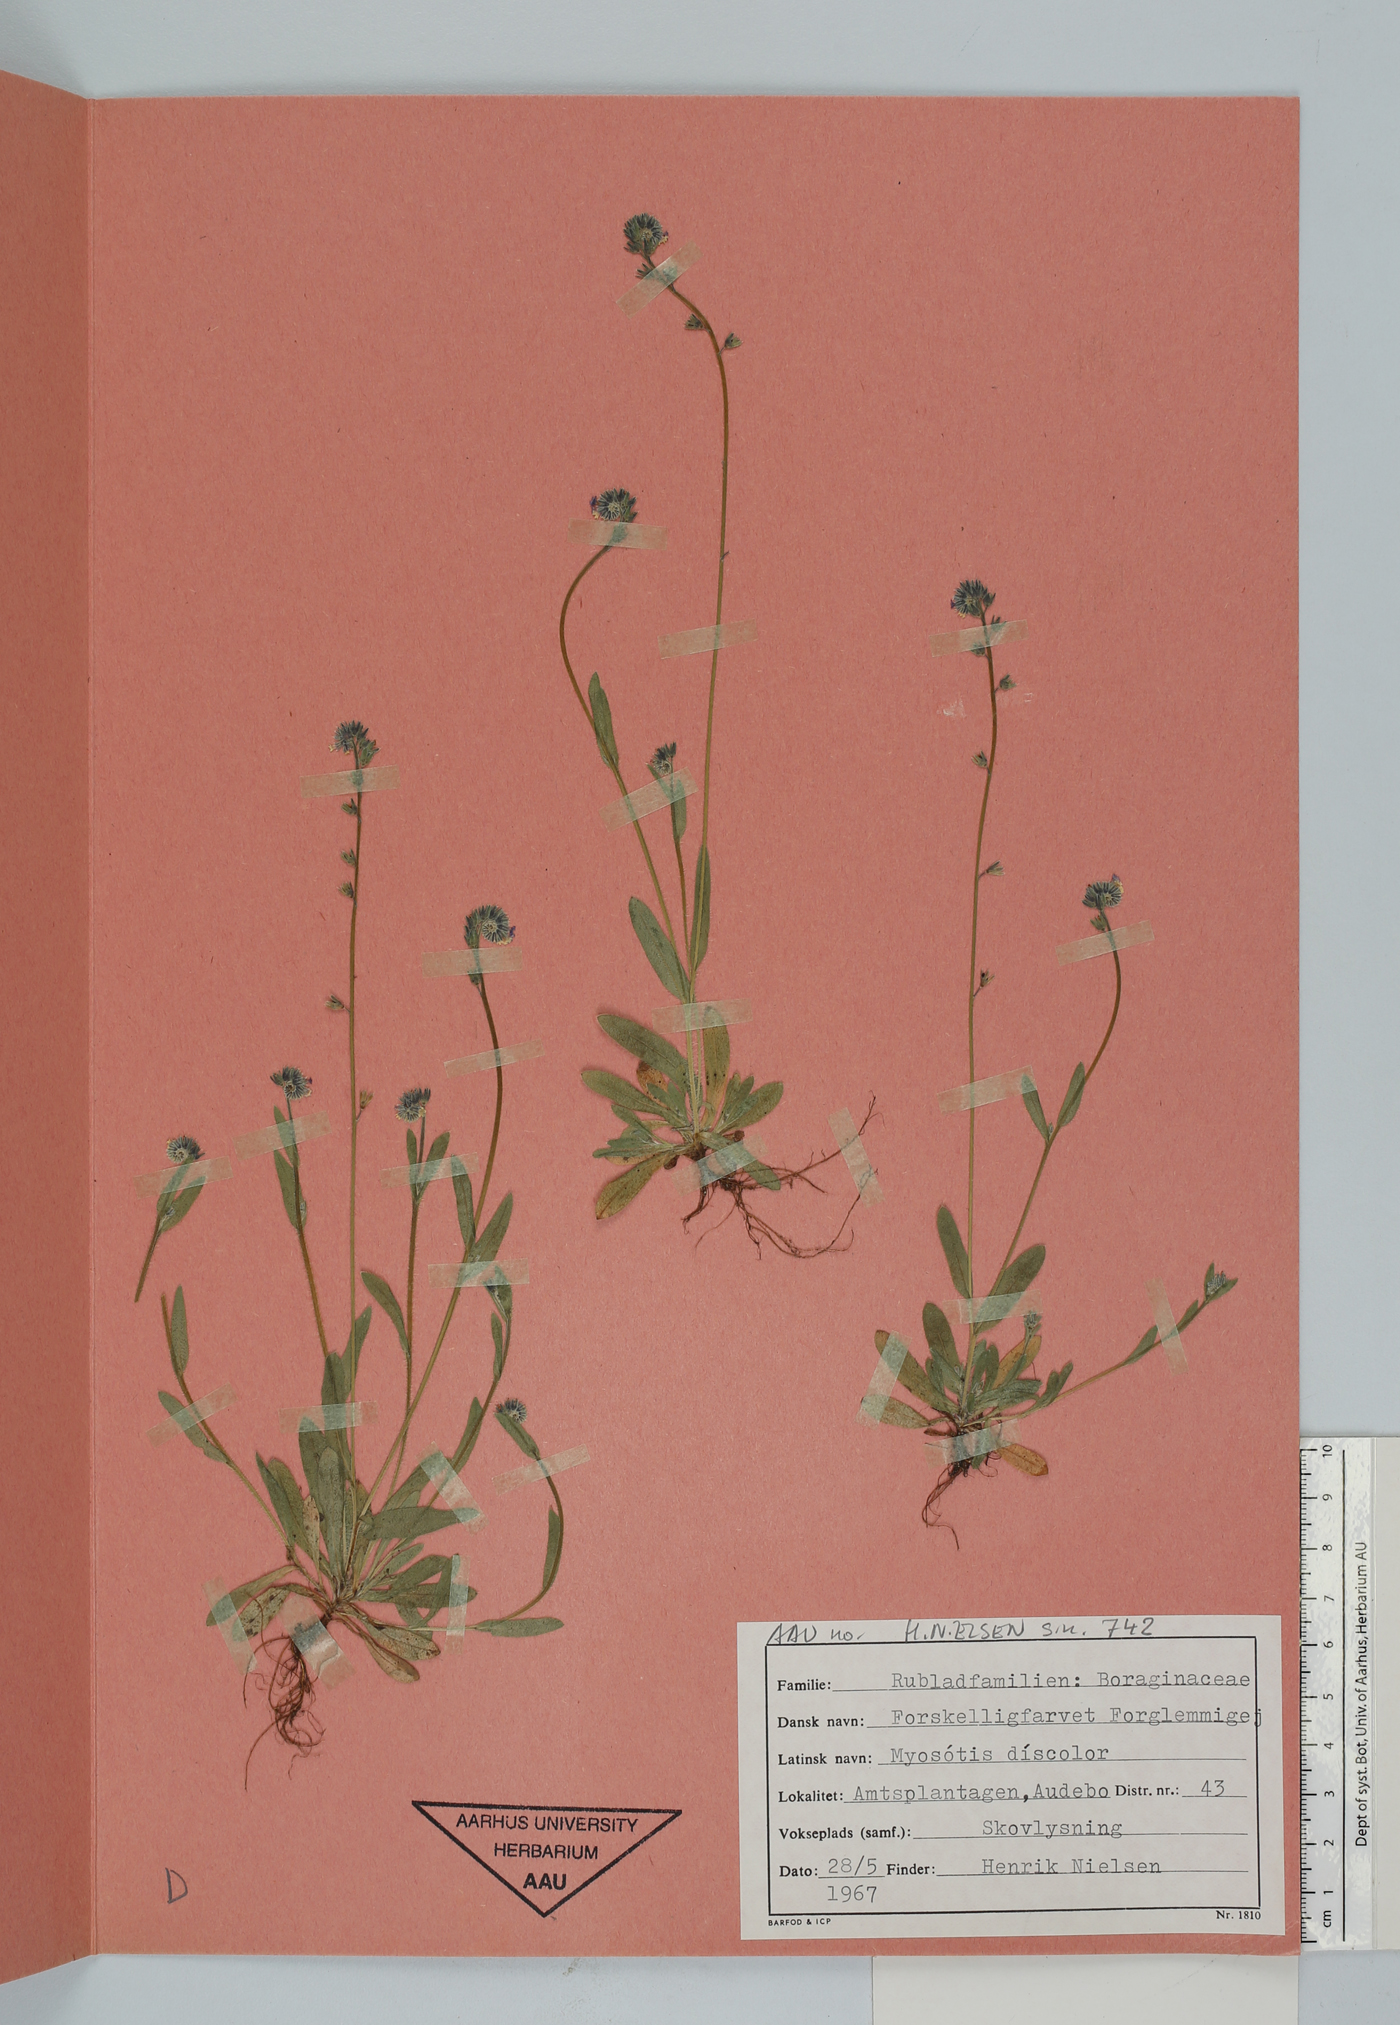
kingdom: Plantae
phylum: Tracheophyta
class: Magnoliopsida
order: Boraginales
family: Boraginaceae
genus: Myosotis
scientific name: Myosotis discolor
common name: Changing forget-me-not
